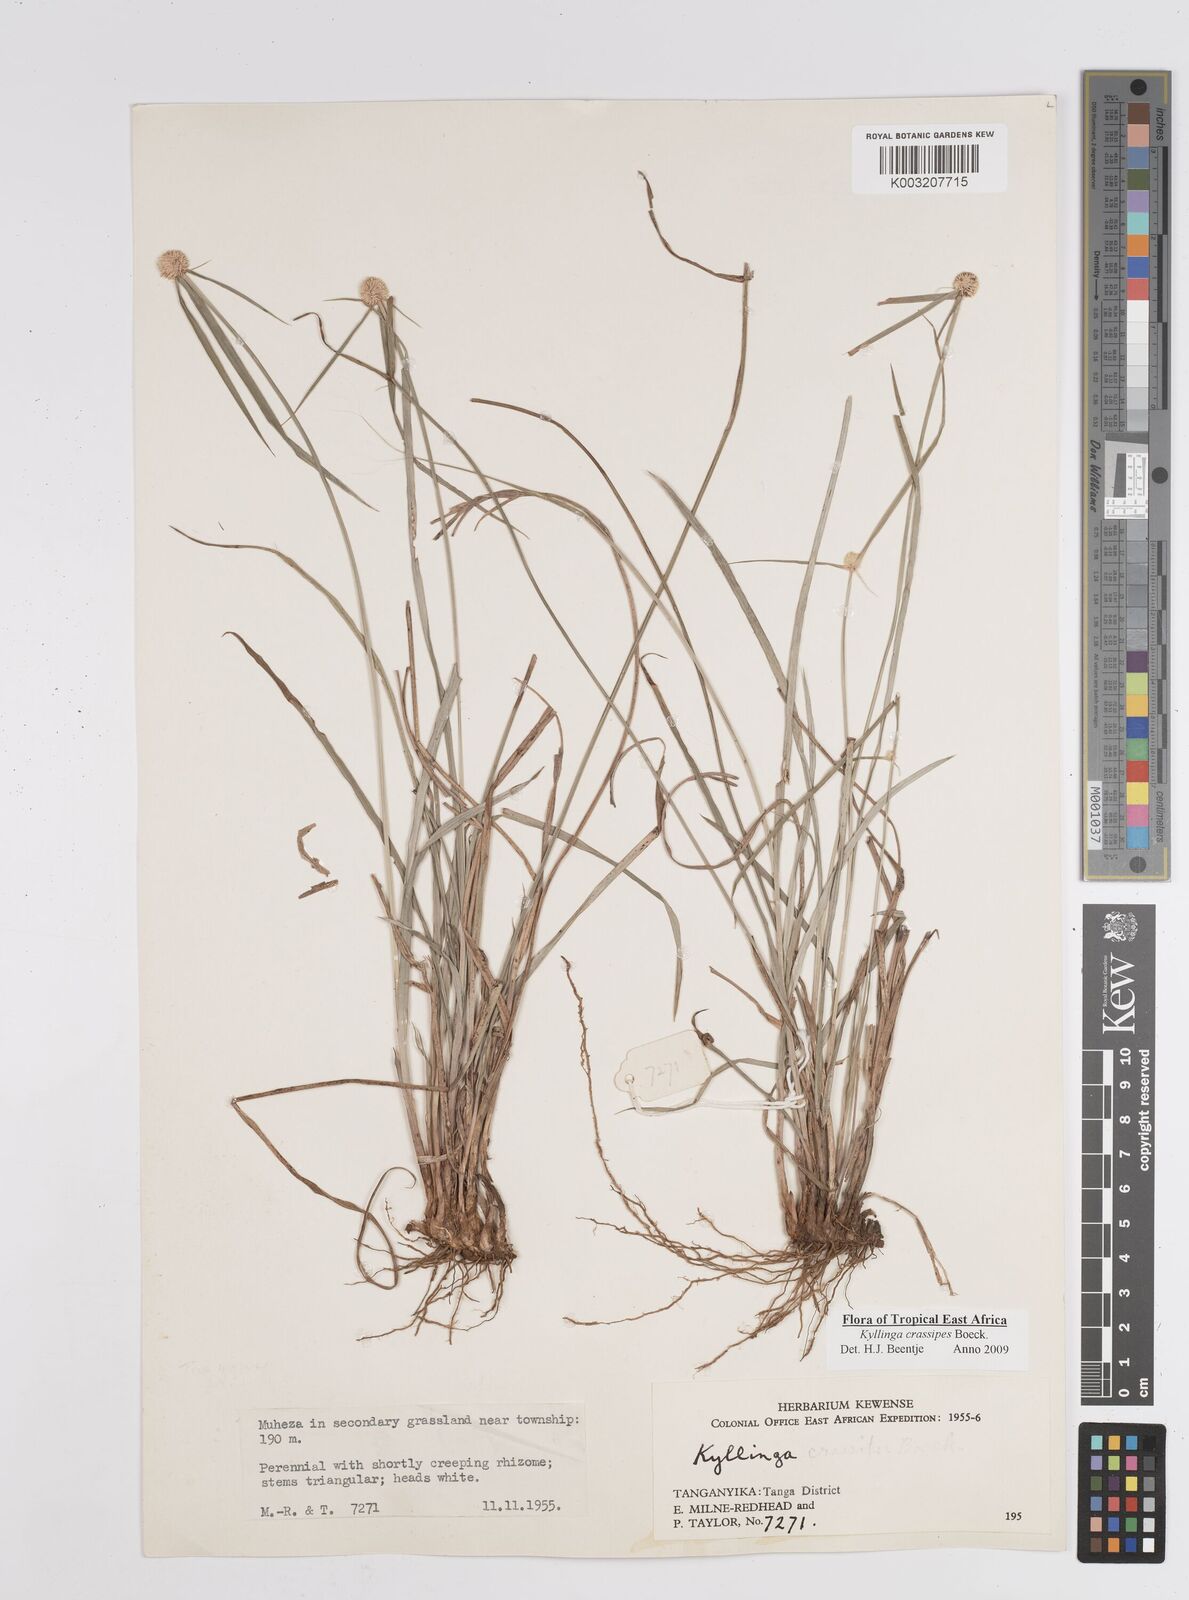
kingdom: Plantae
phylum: Tracheophyta
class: Liliopsida
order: Poales
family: Cyperaceae
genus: Cyperus
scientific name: Cyperus
